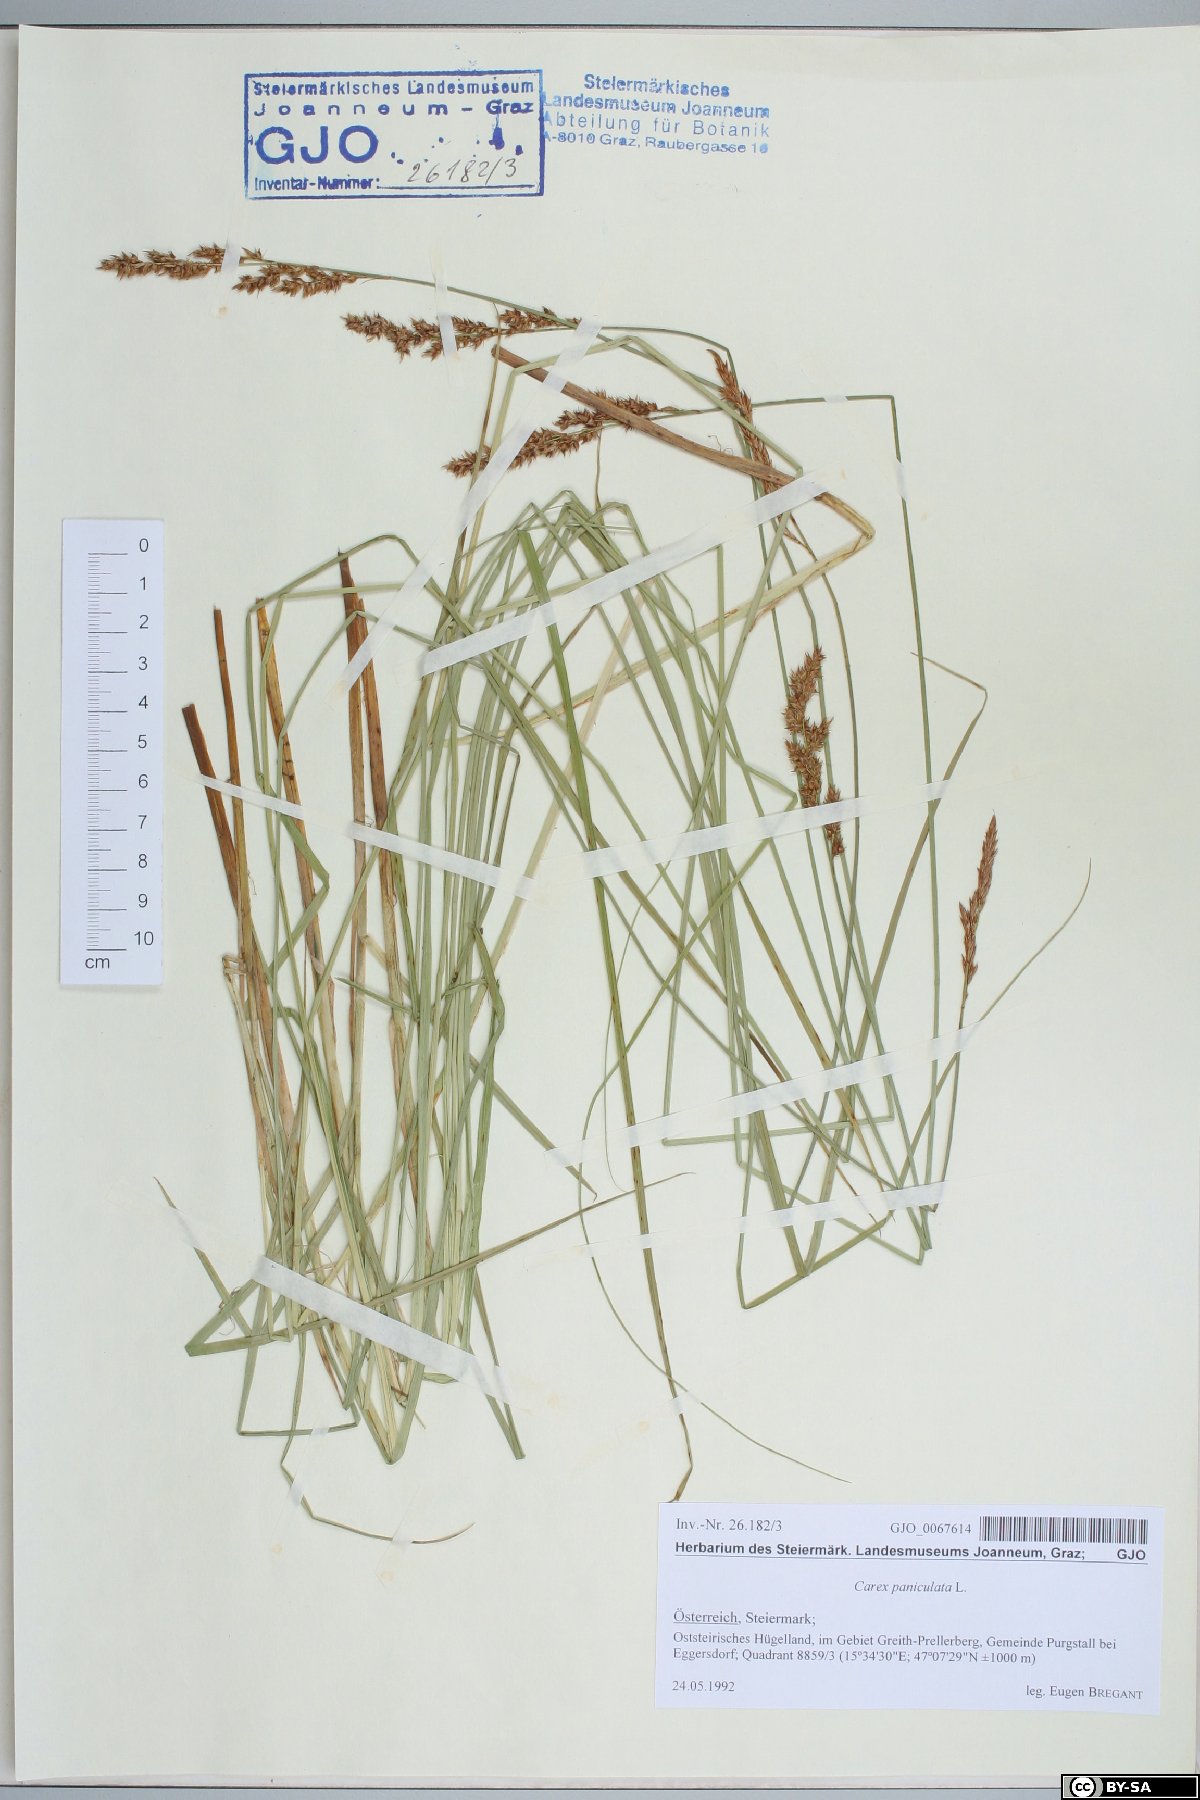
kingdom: Plantae
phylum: Tracheophyta
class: Liliopsida
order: Poales
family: Cyperaceae
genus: Carex
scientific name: Carex paniculata
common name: Greater tussock-sedge
